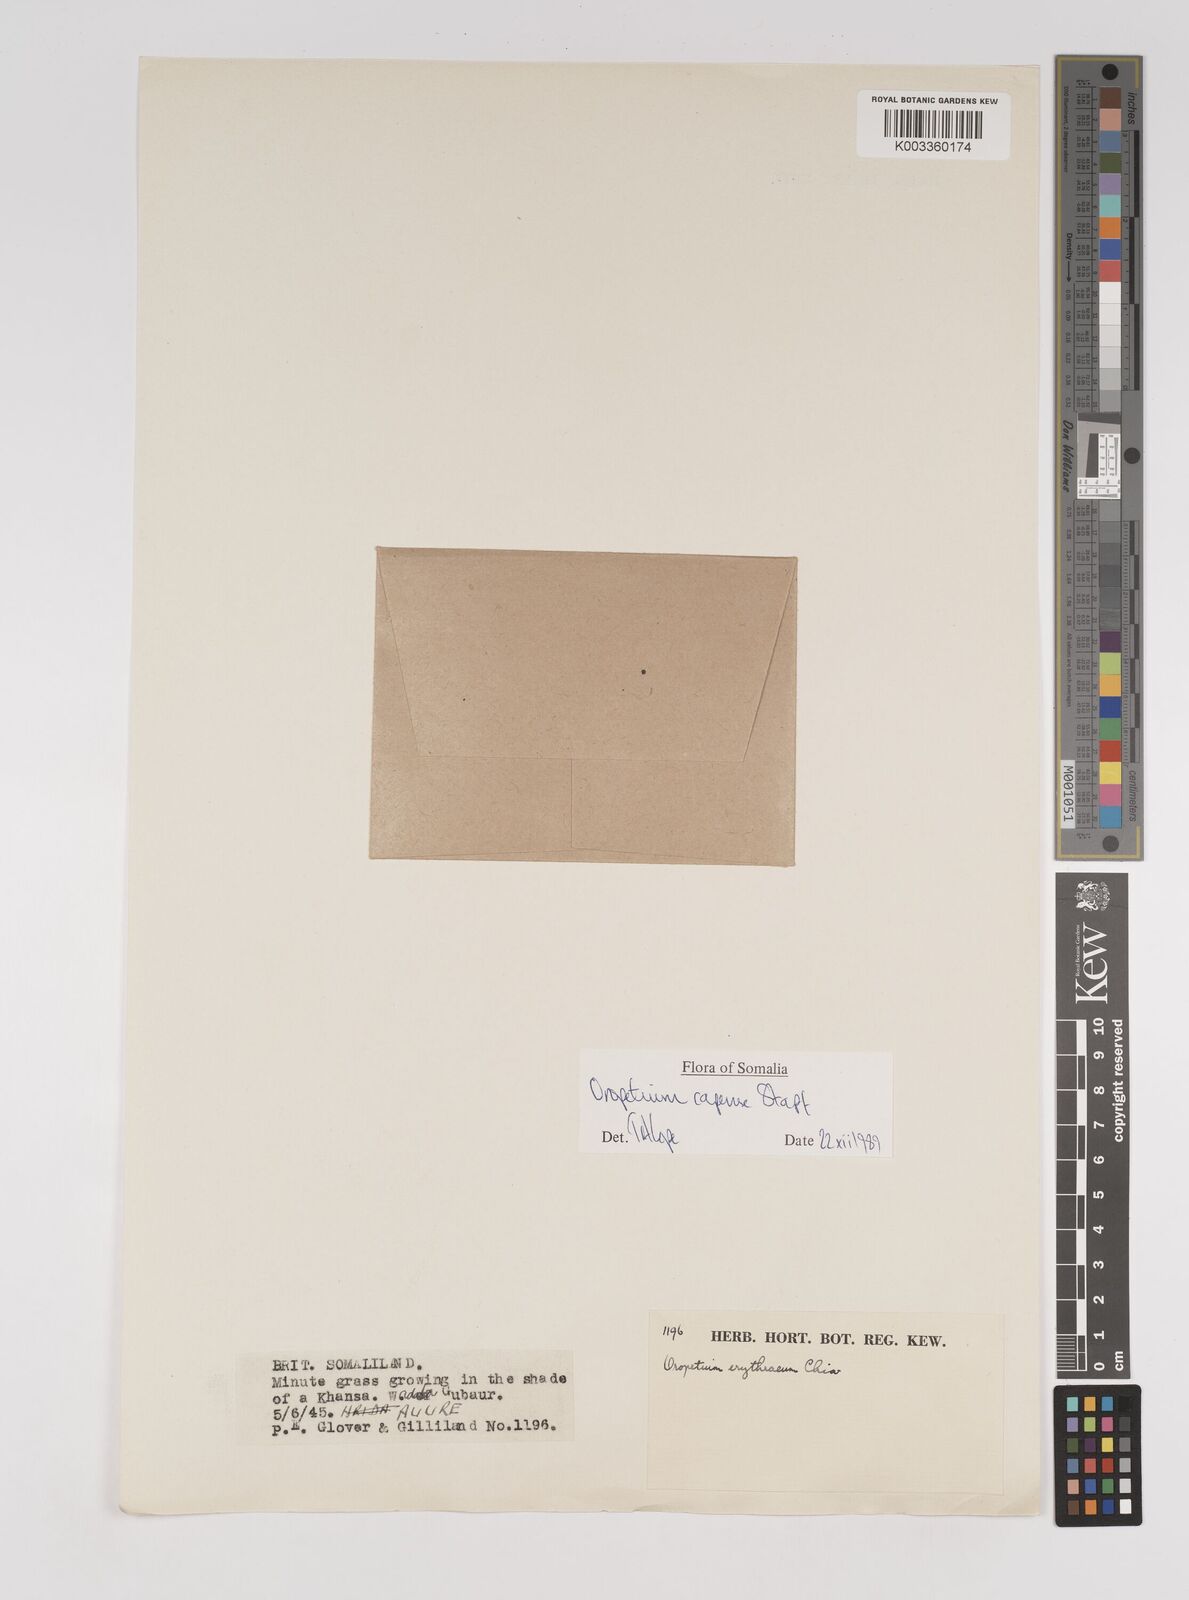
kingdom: Plantae
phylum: Tracheophyta
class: Liliopsida
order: Poales
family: Poaceae
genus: Oropetium
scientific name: Oropetium capense
